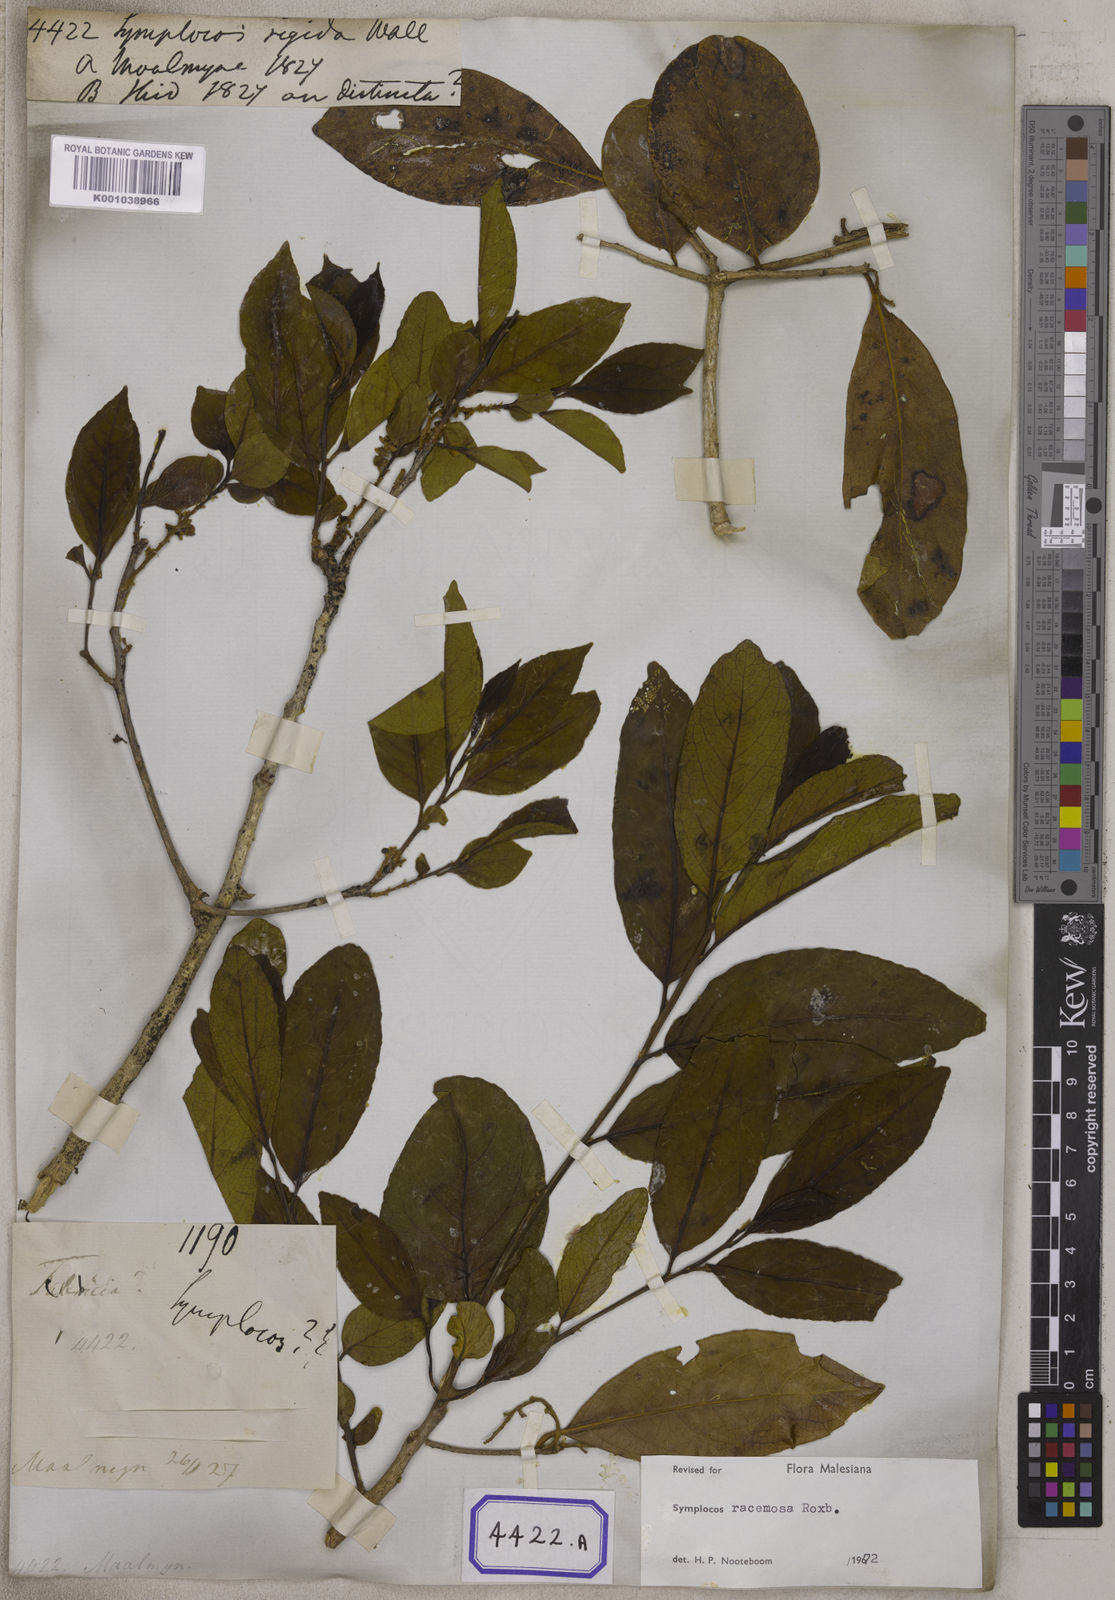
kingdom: Plantae
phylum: Tracheophyta
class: Magnoliopsida
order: Ericales
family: Symplocaceae
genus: Symplocos
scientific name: Symplocos
